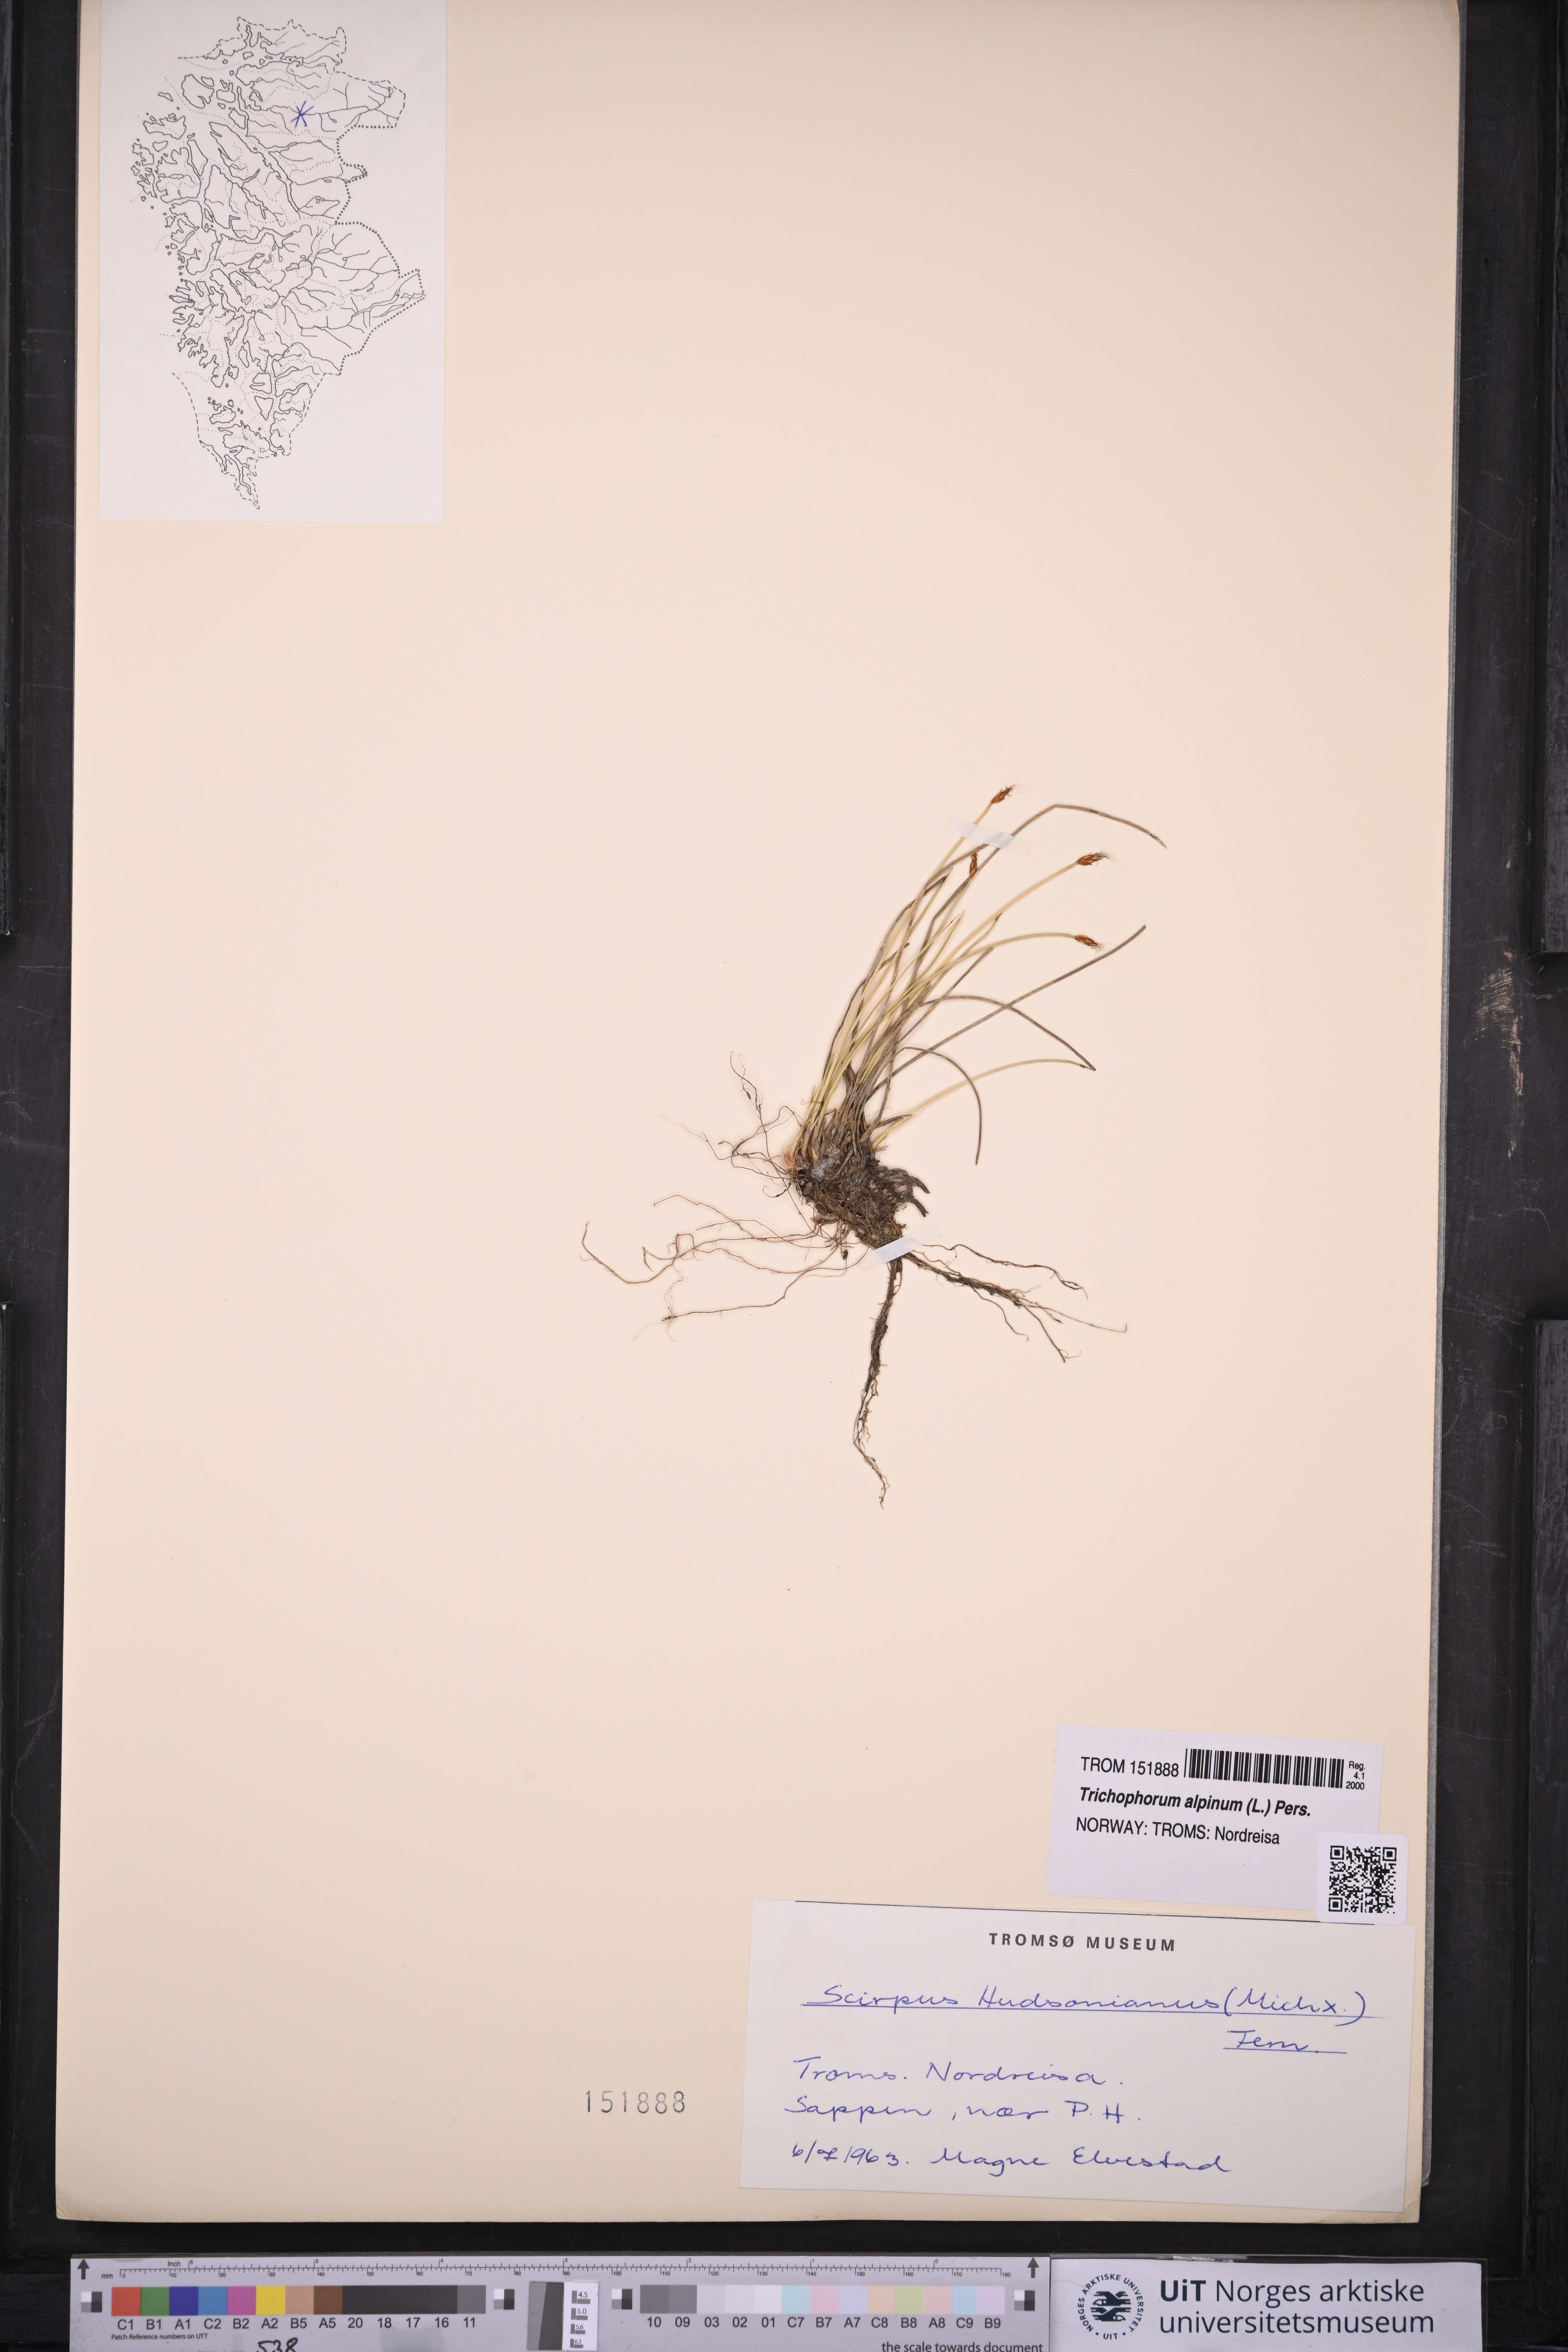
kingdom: Plantae
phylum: Tracheophyta
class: Liliopsida
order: Poales
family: Cyperaceae
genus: Trichophorum
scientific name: Trichophorum alpinum
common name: Alpine bulrush
